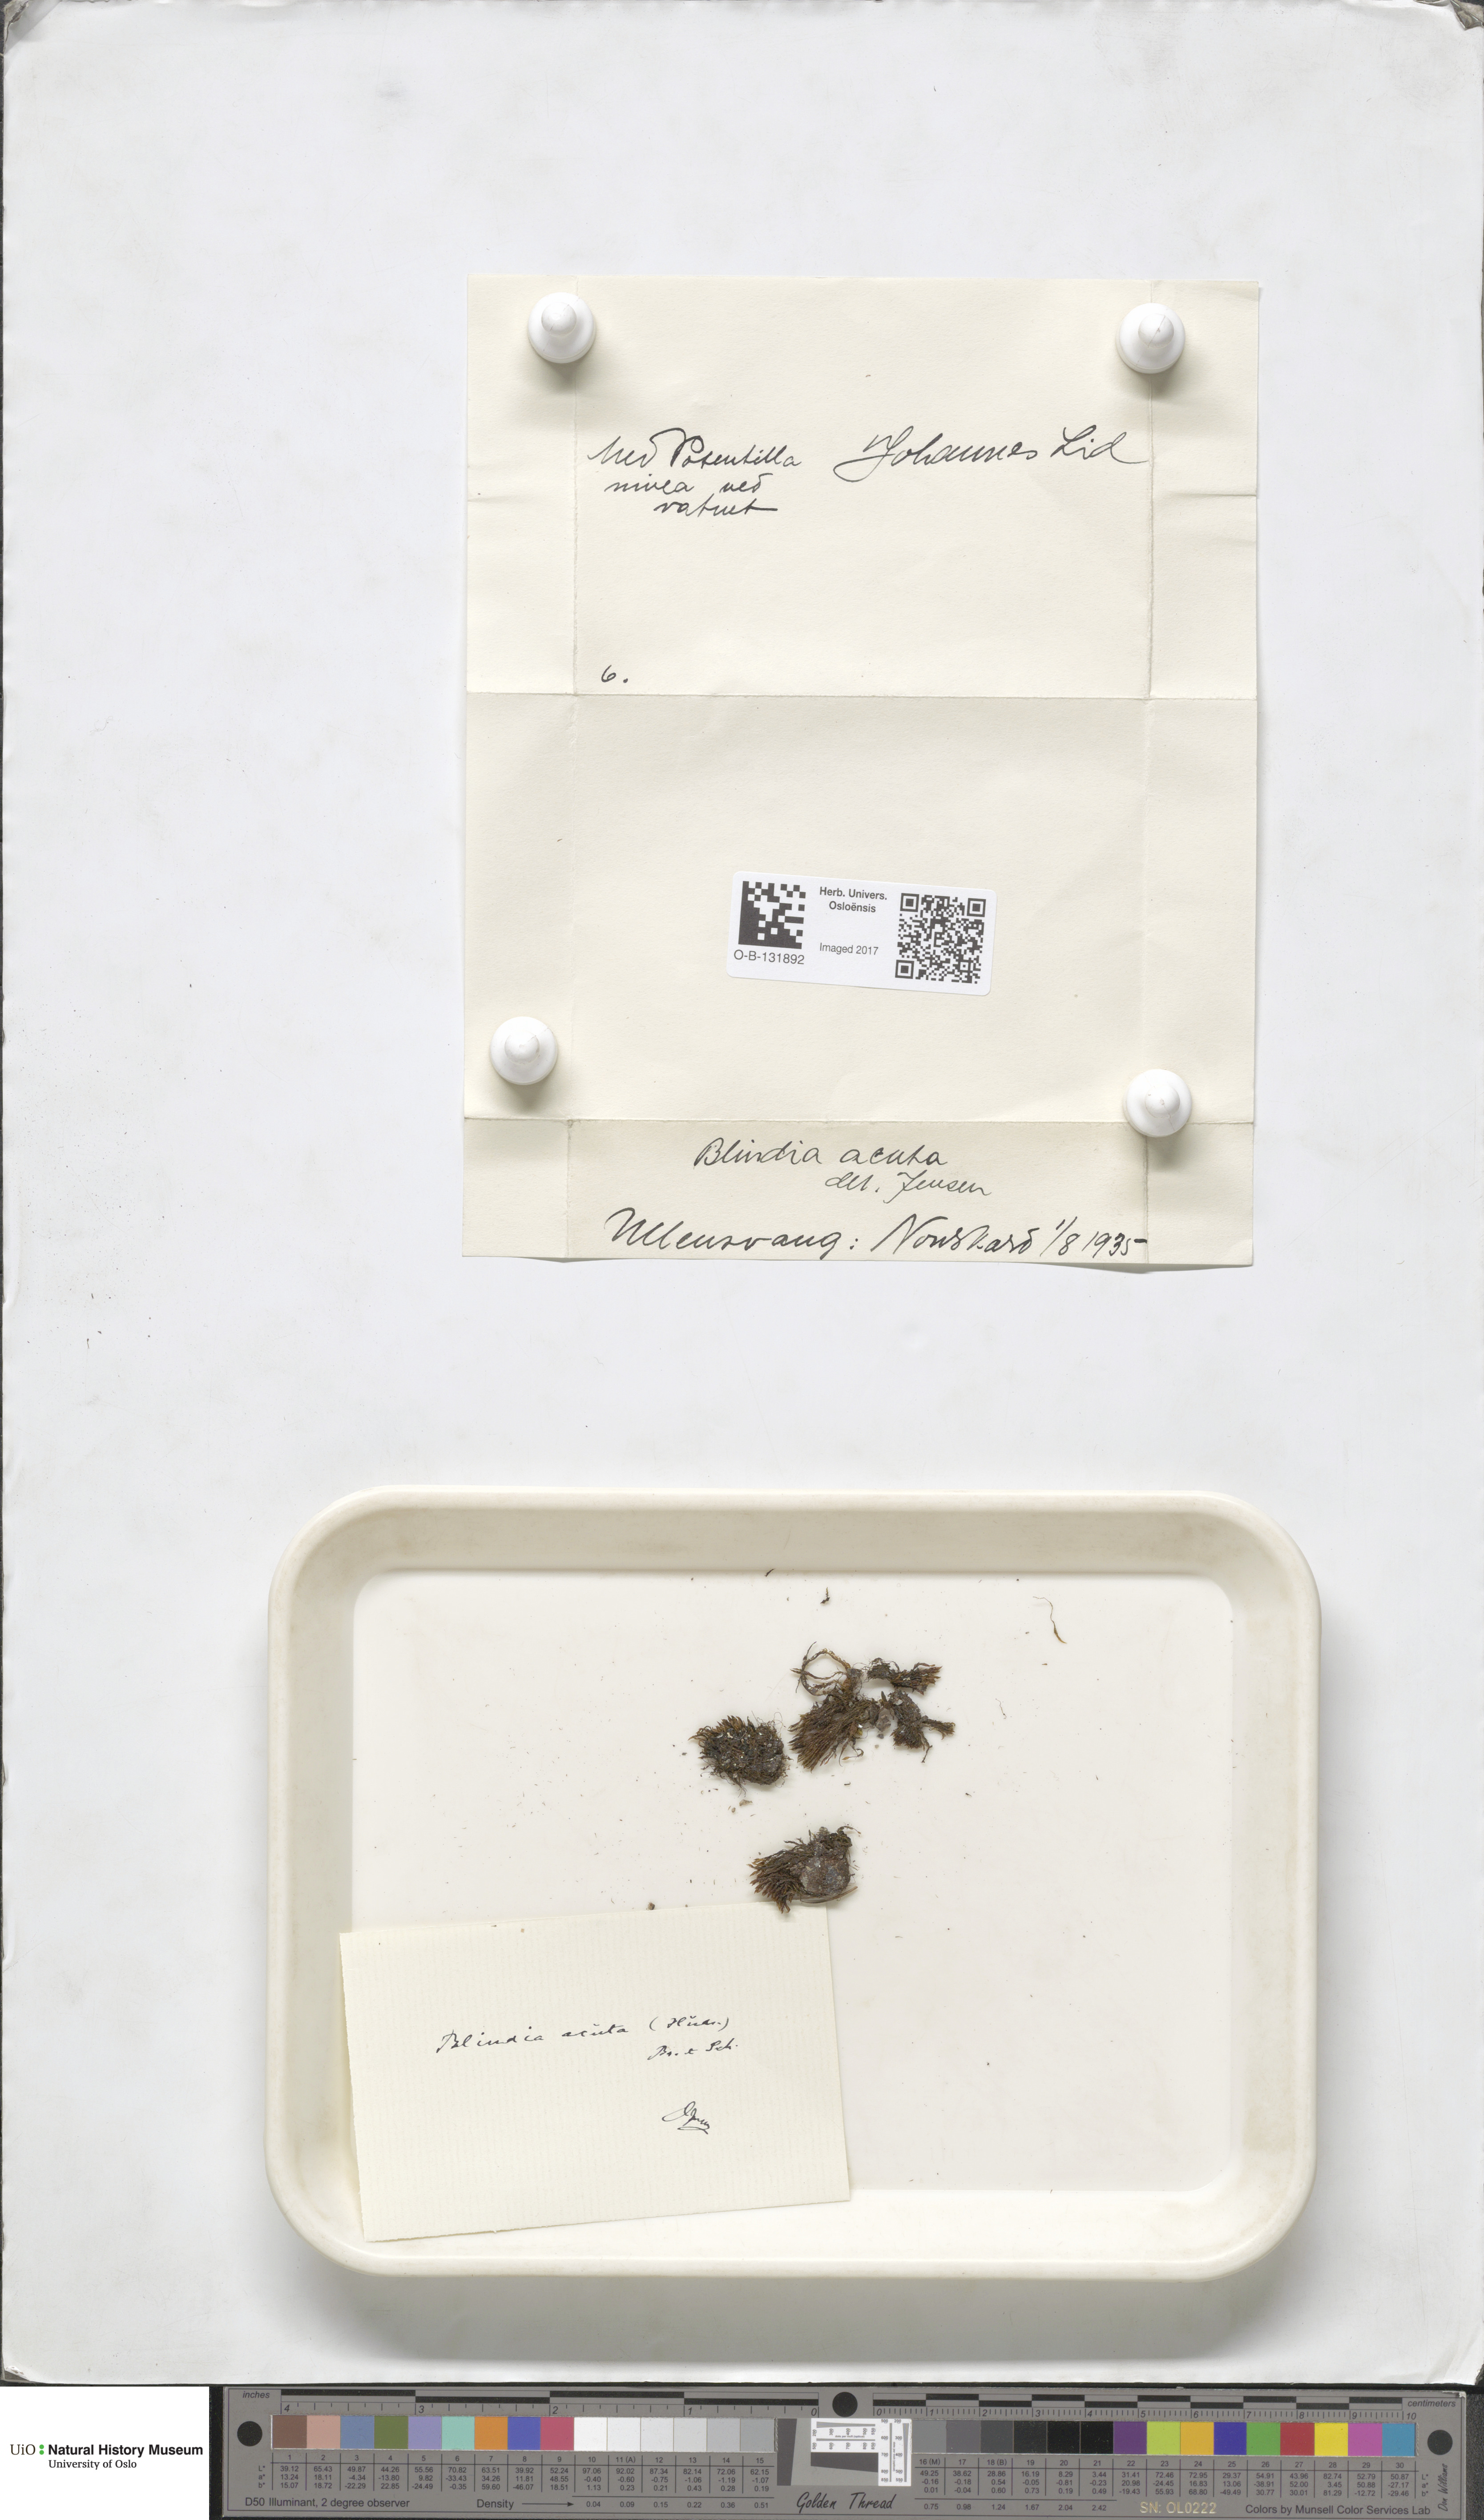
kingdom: Plantae
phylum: Bryophyta
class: Bryopsida
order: Grimmiales
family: Seligeriaceae
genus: Blindia
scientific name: Blindia acuta
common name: Sharp-leaved blind's moss
